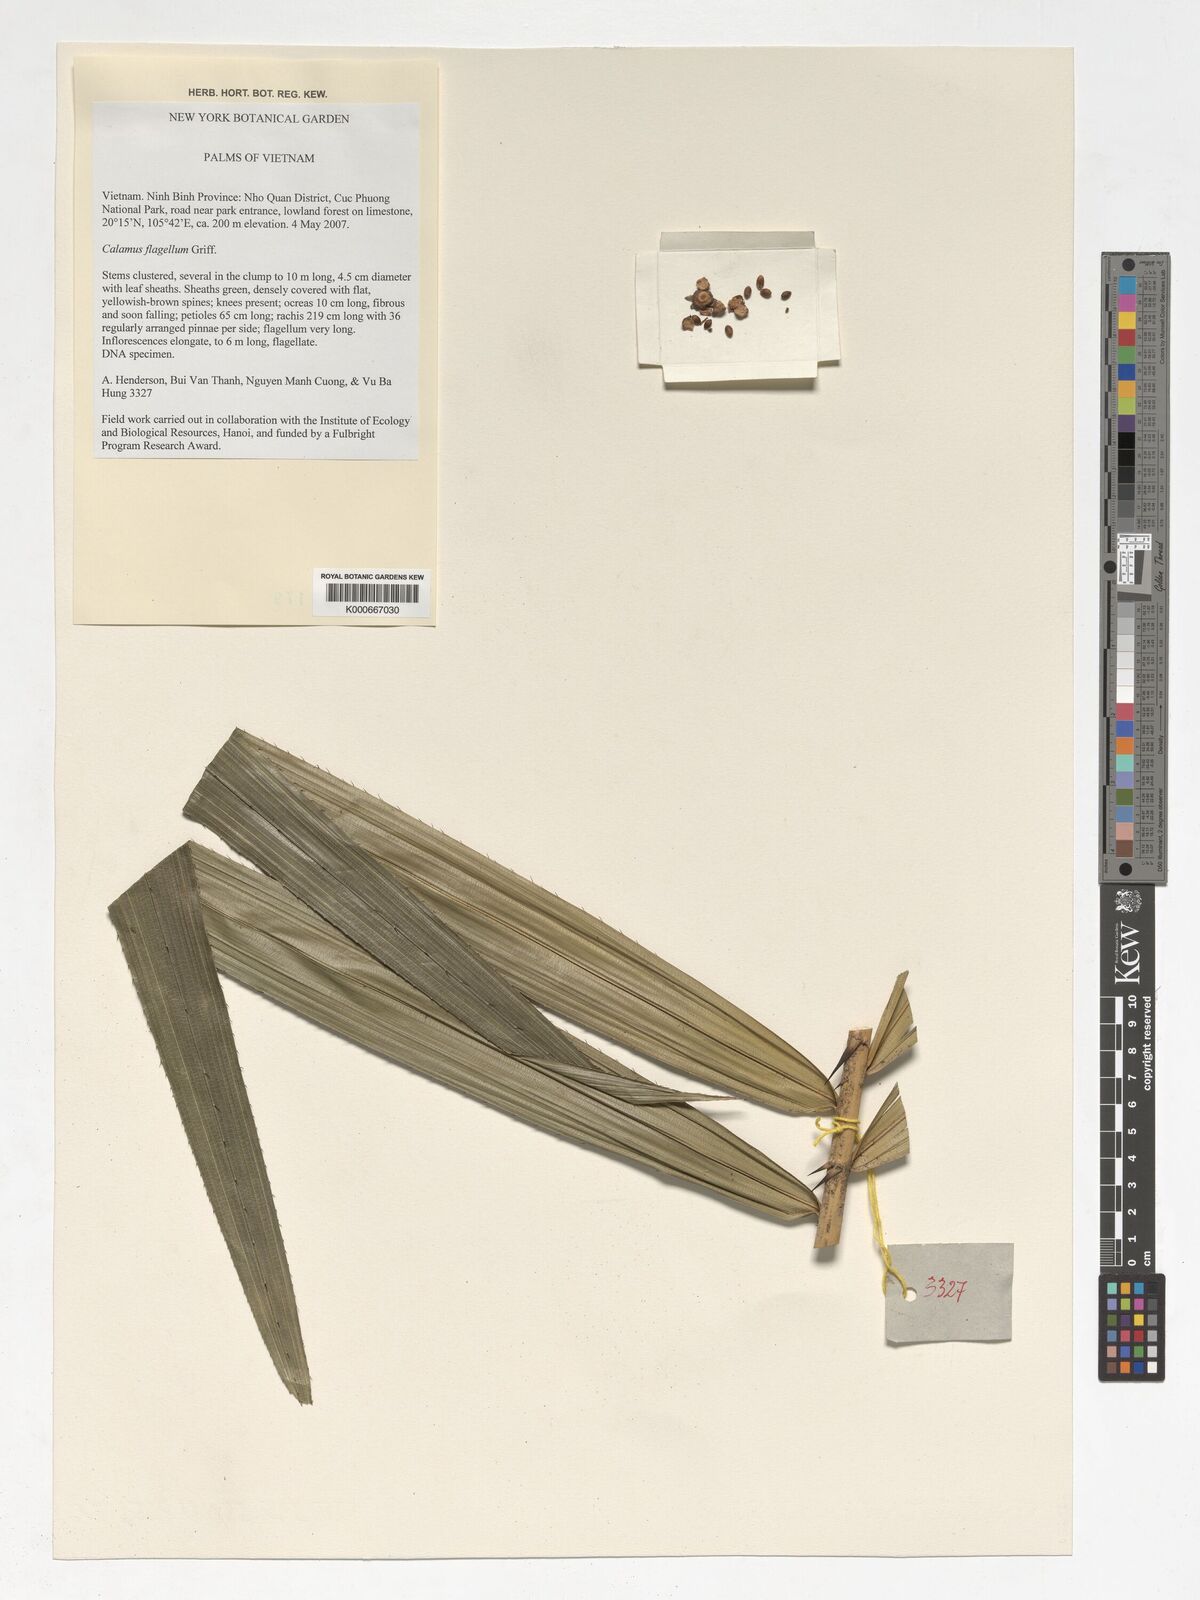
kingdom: Plantae
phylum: Tracheophyta
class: Liliopsida
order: Arecales
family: Arecaceae
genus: Calamus
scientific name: Calamus flagellum
